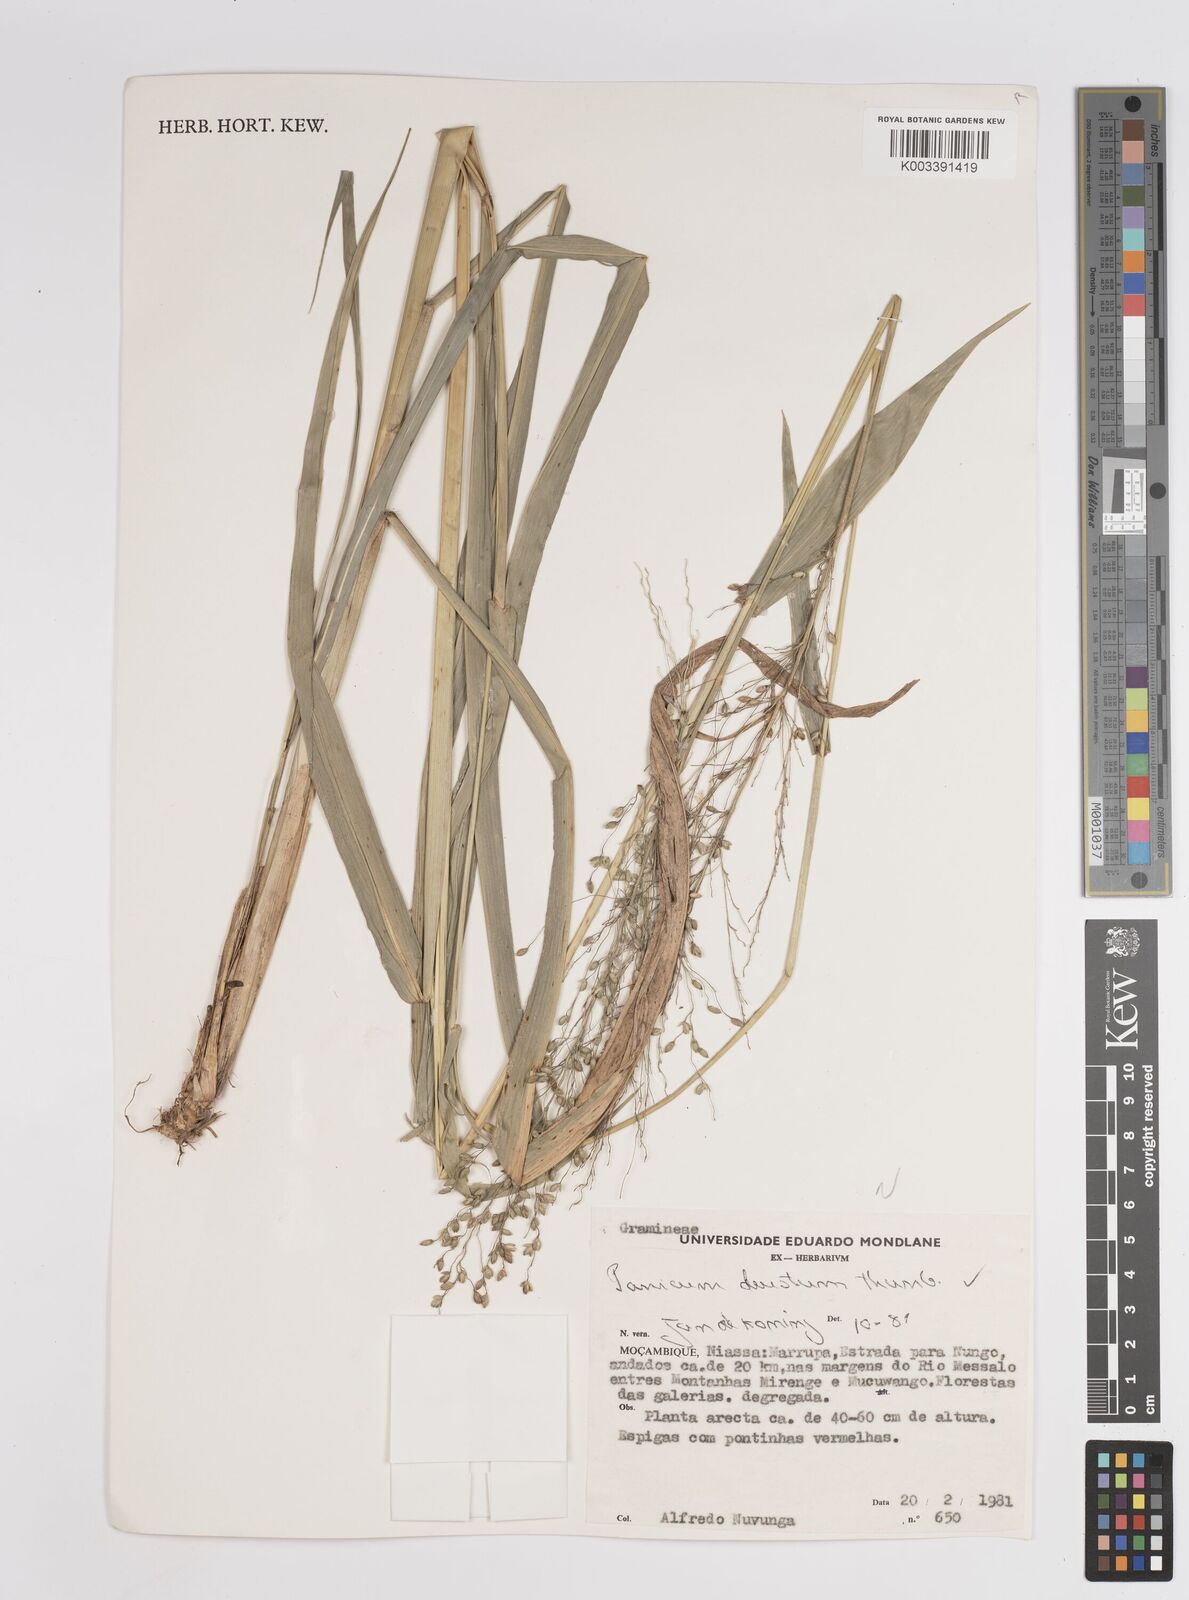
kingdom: Plantae
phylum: Tracheophyta
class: Liliopsida
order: Poales
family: Poaceae
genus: Panicum
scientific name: Panicum deustum
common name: Reed panicum
